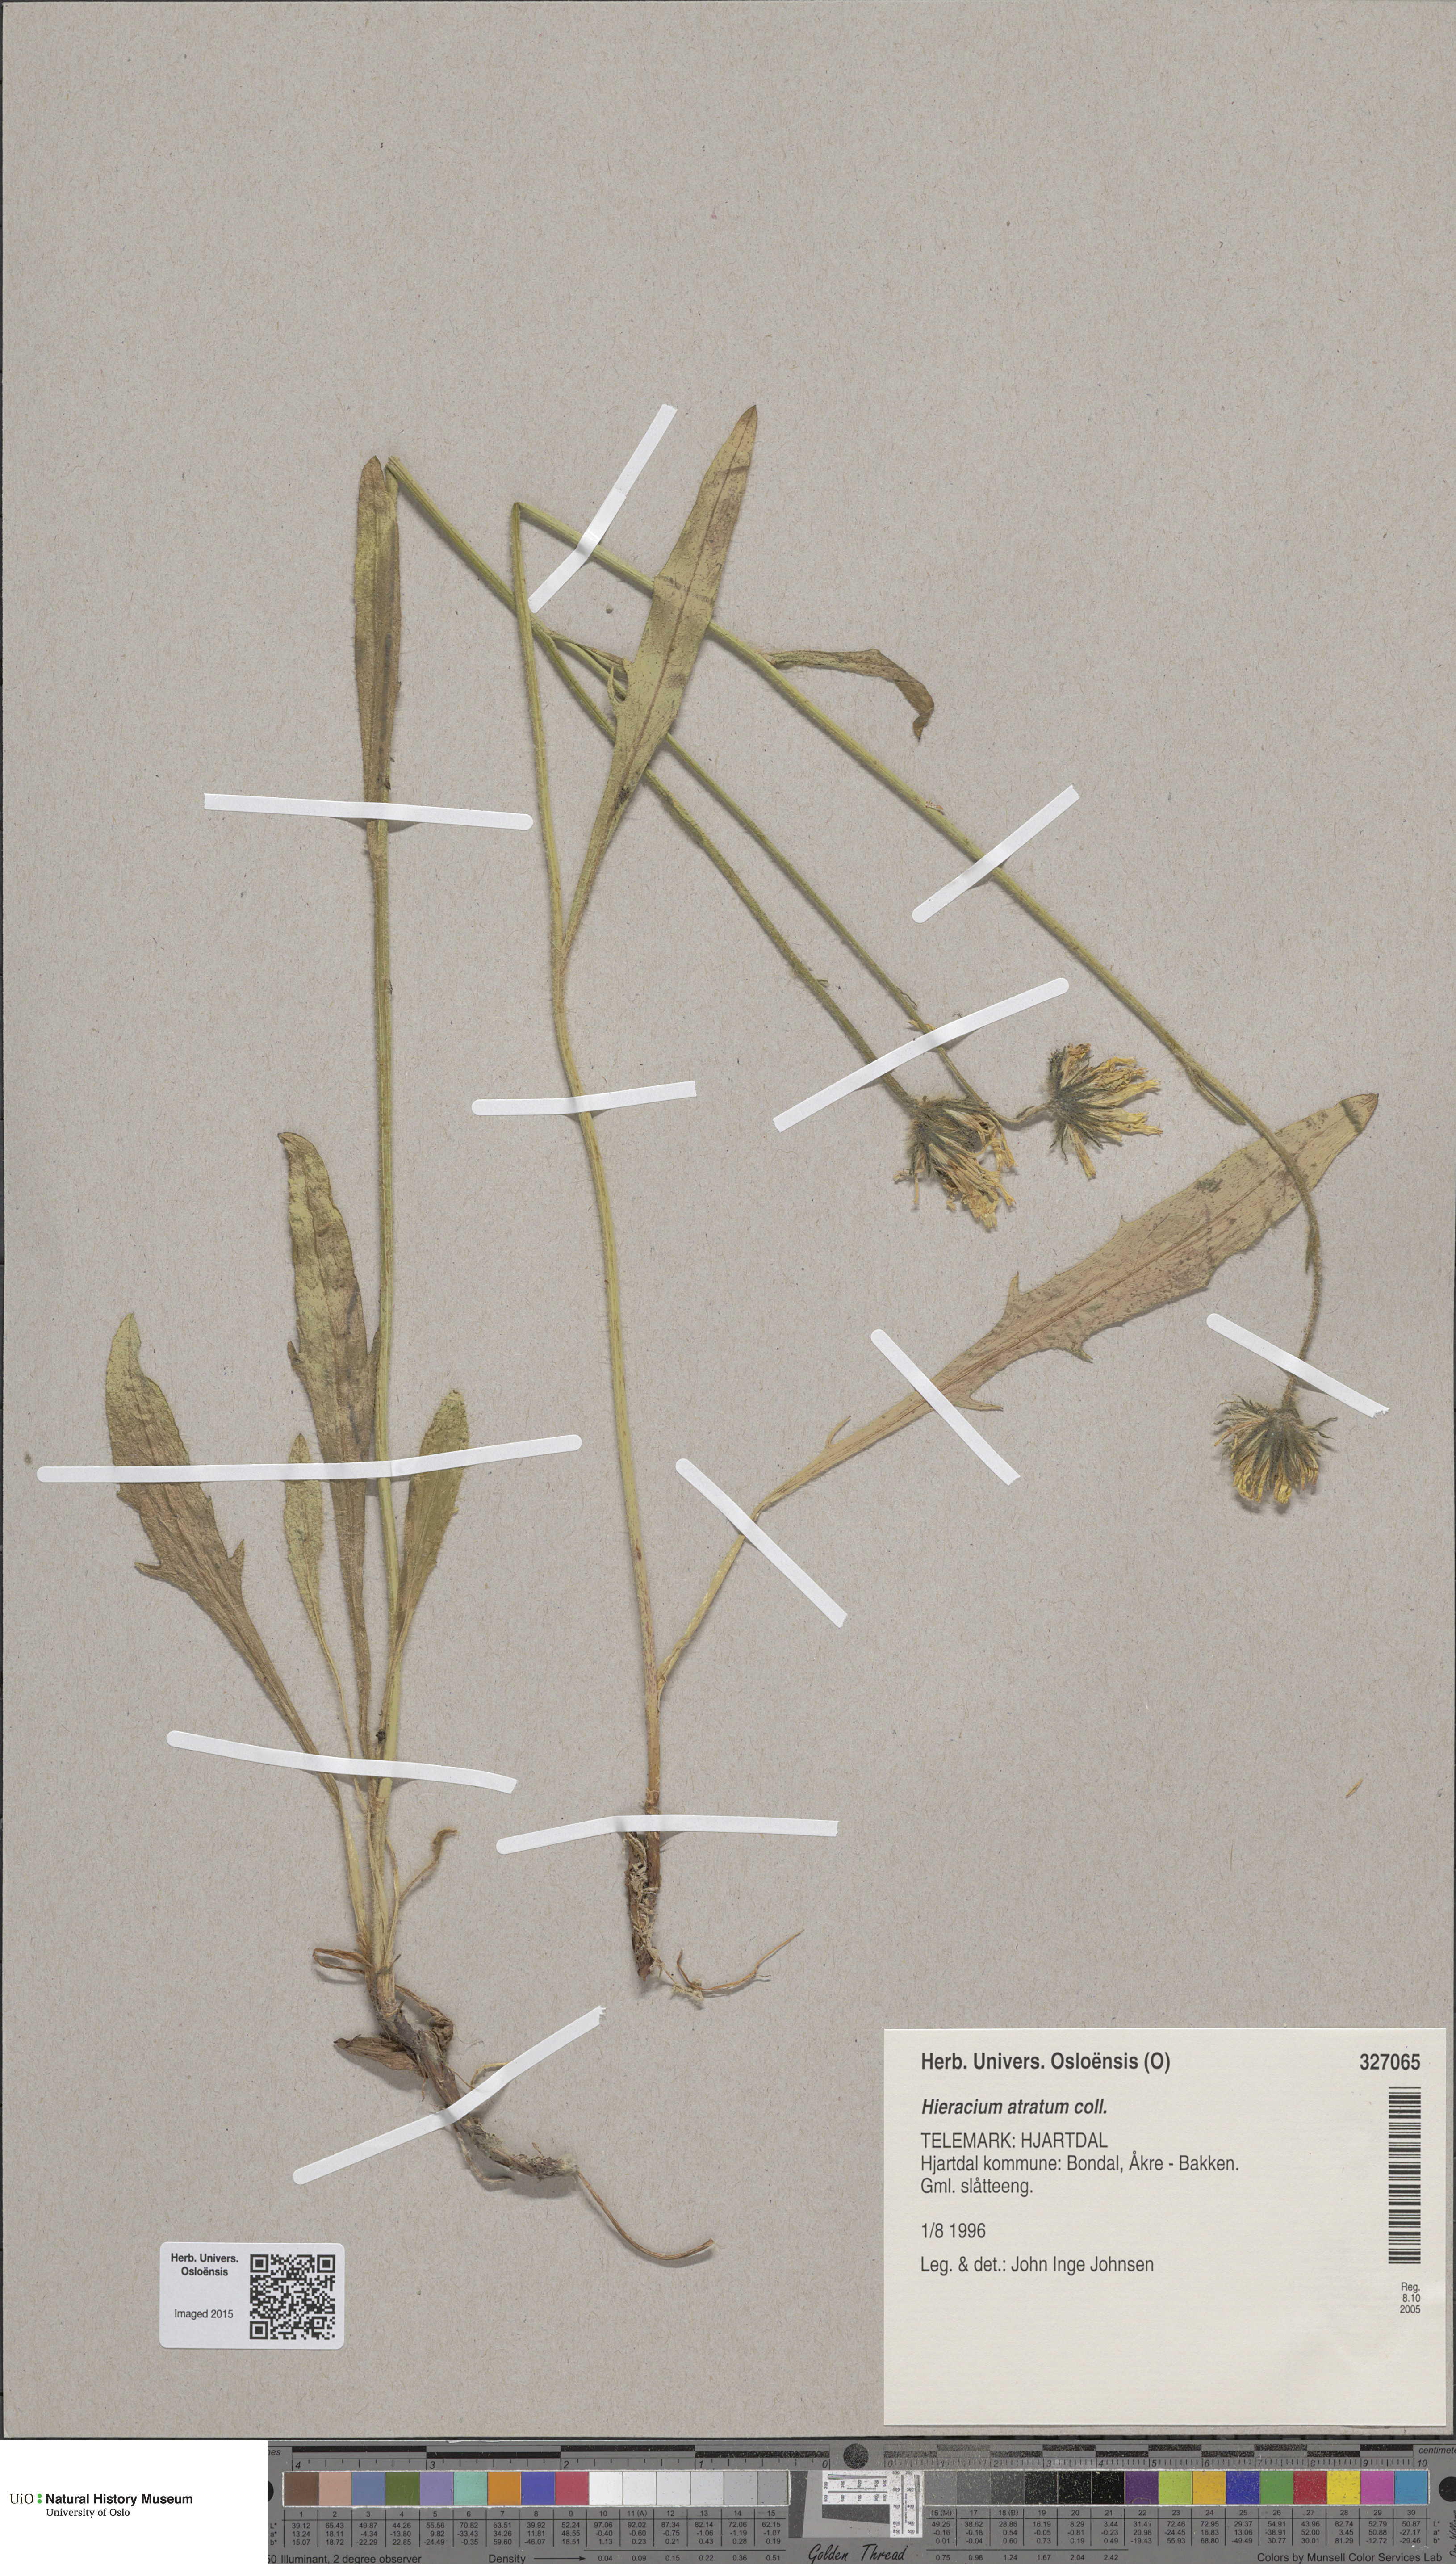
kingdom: Plantae
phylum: Tracheophyta
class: Magnoliopsida
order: Asterales
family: Asteraceae
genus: Hieracium
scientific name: Hieracium atratum
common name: Polar hawkweed
